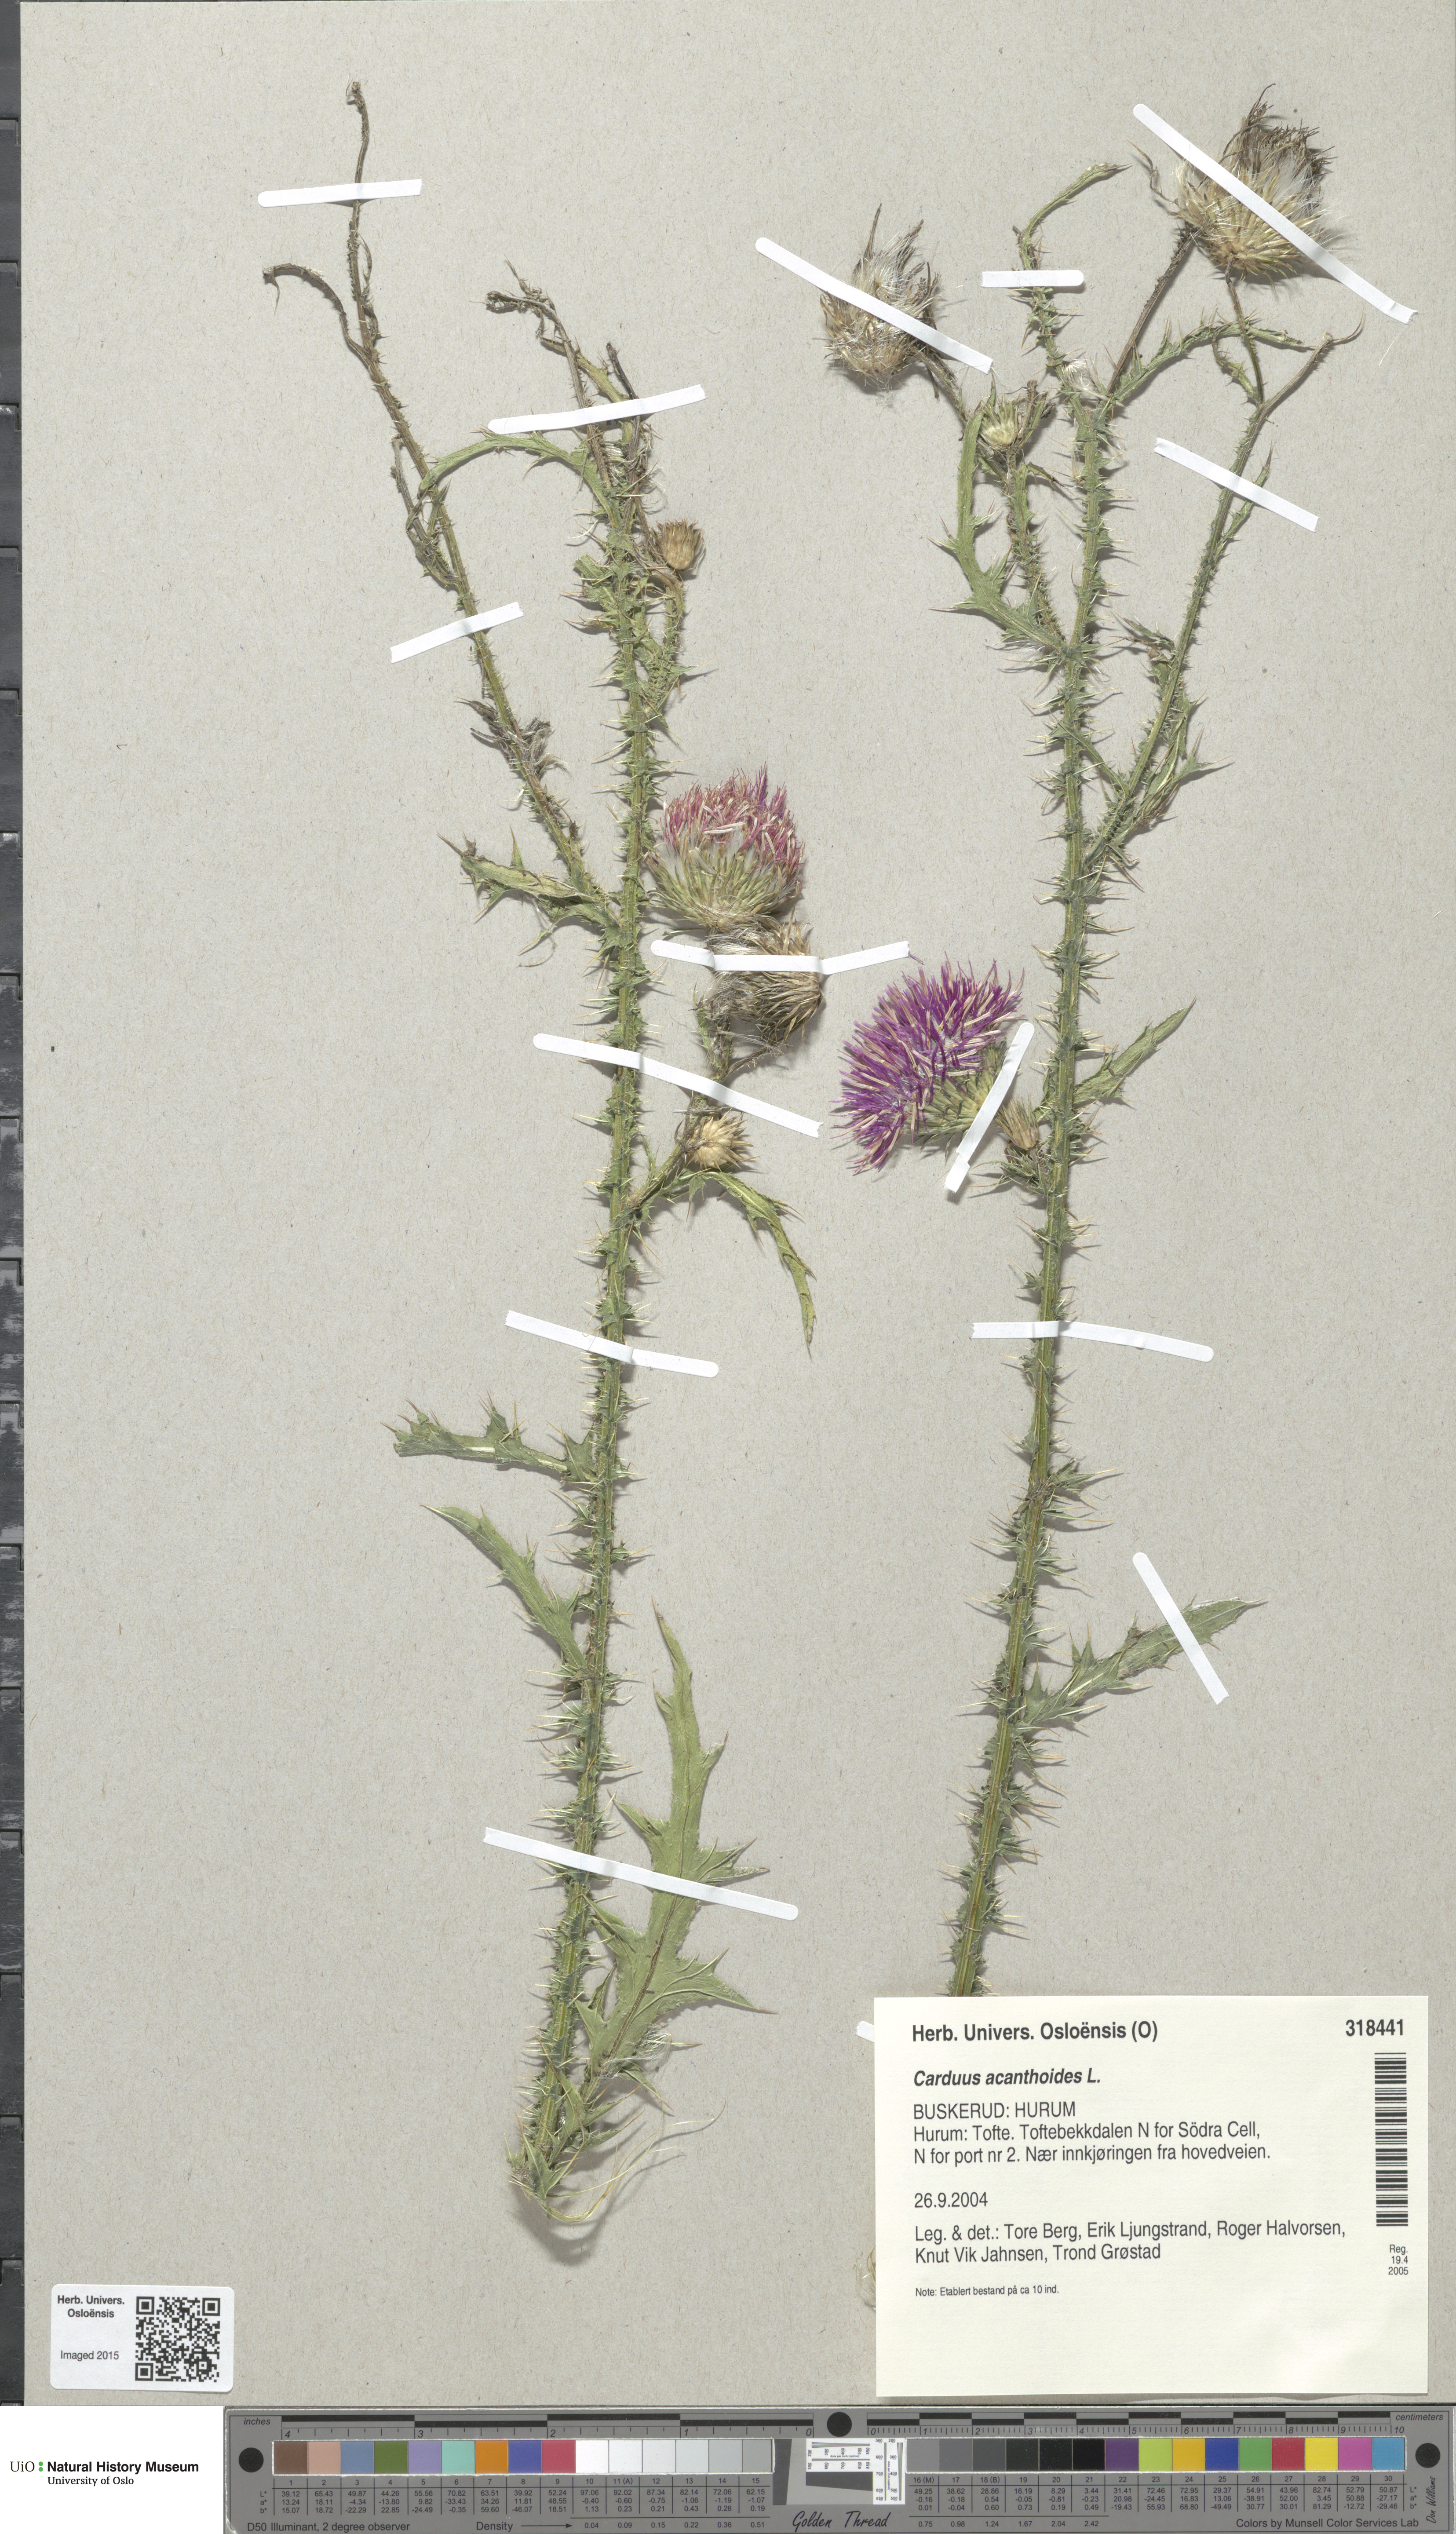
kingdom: Plantae
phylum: Tracheophyta
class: Magnoliopsida
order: Asterales
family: Asteraceae
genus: Carduus
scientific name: Carduus acanthoides
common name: Plumeless thistle
